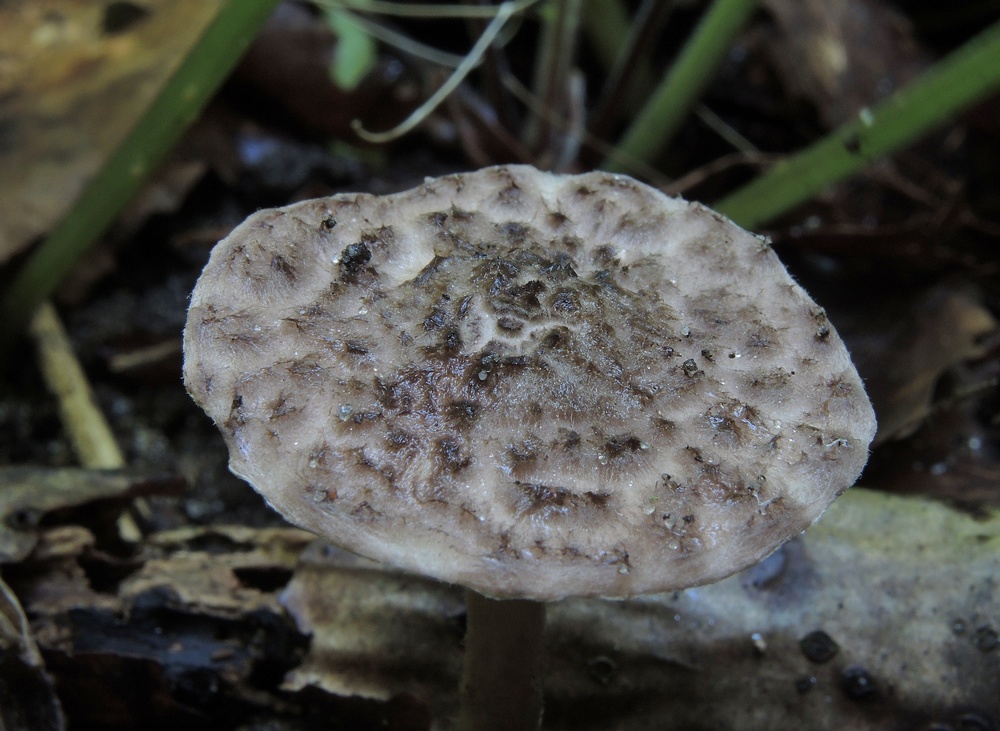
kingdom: Fungi
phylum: Basidiomycota
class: Agaricomycetes
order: Agaricales
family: Agaricaceae
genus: Lepiota
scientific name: Lepiota fuscovinacea
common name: vinrød parasolhat
